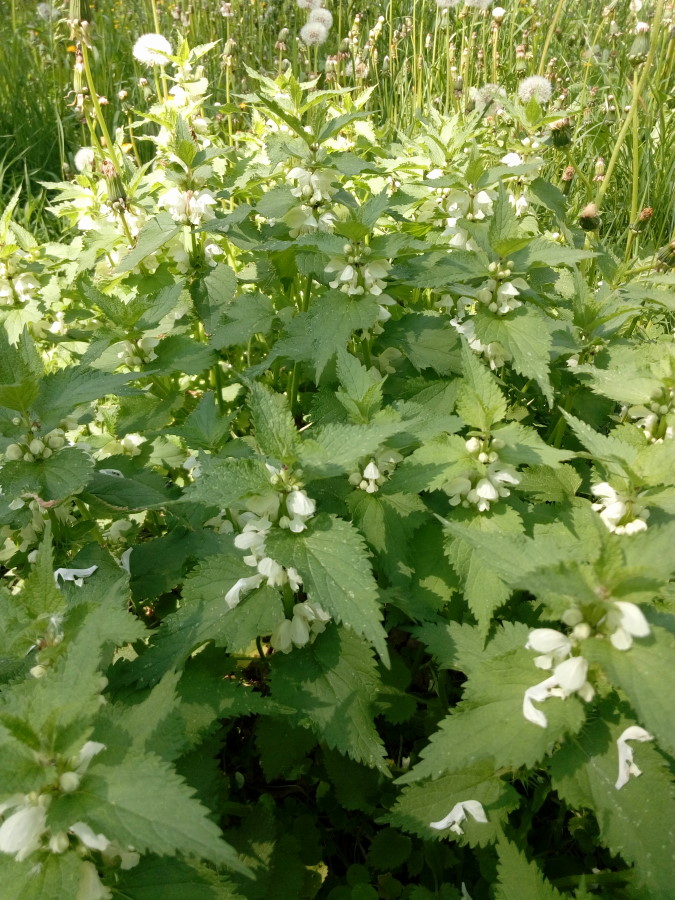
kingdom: Plantae
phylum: Tracheophyta
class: Magnoliopsida
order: Lamiales
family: Lamiaceae
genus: Lamium
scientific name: Lamium album
